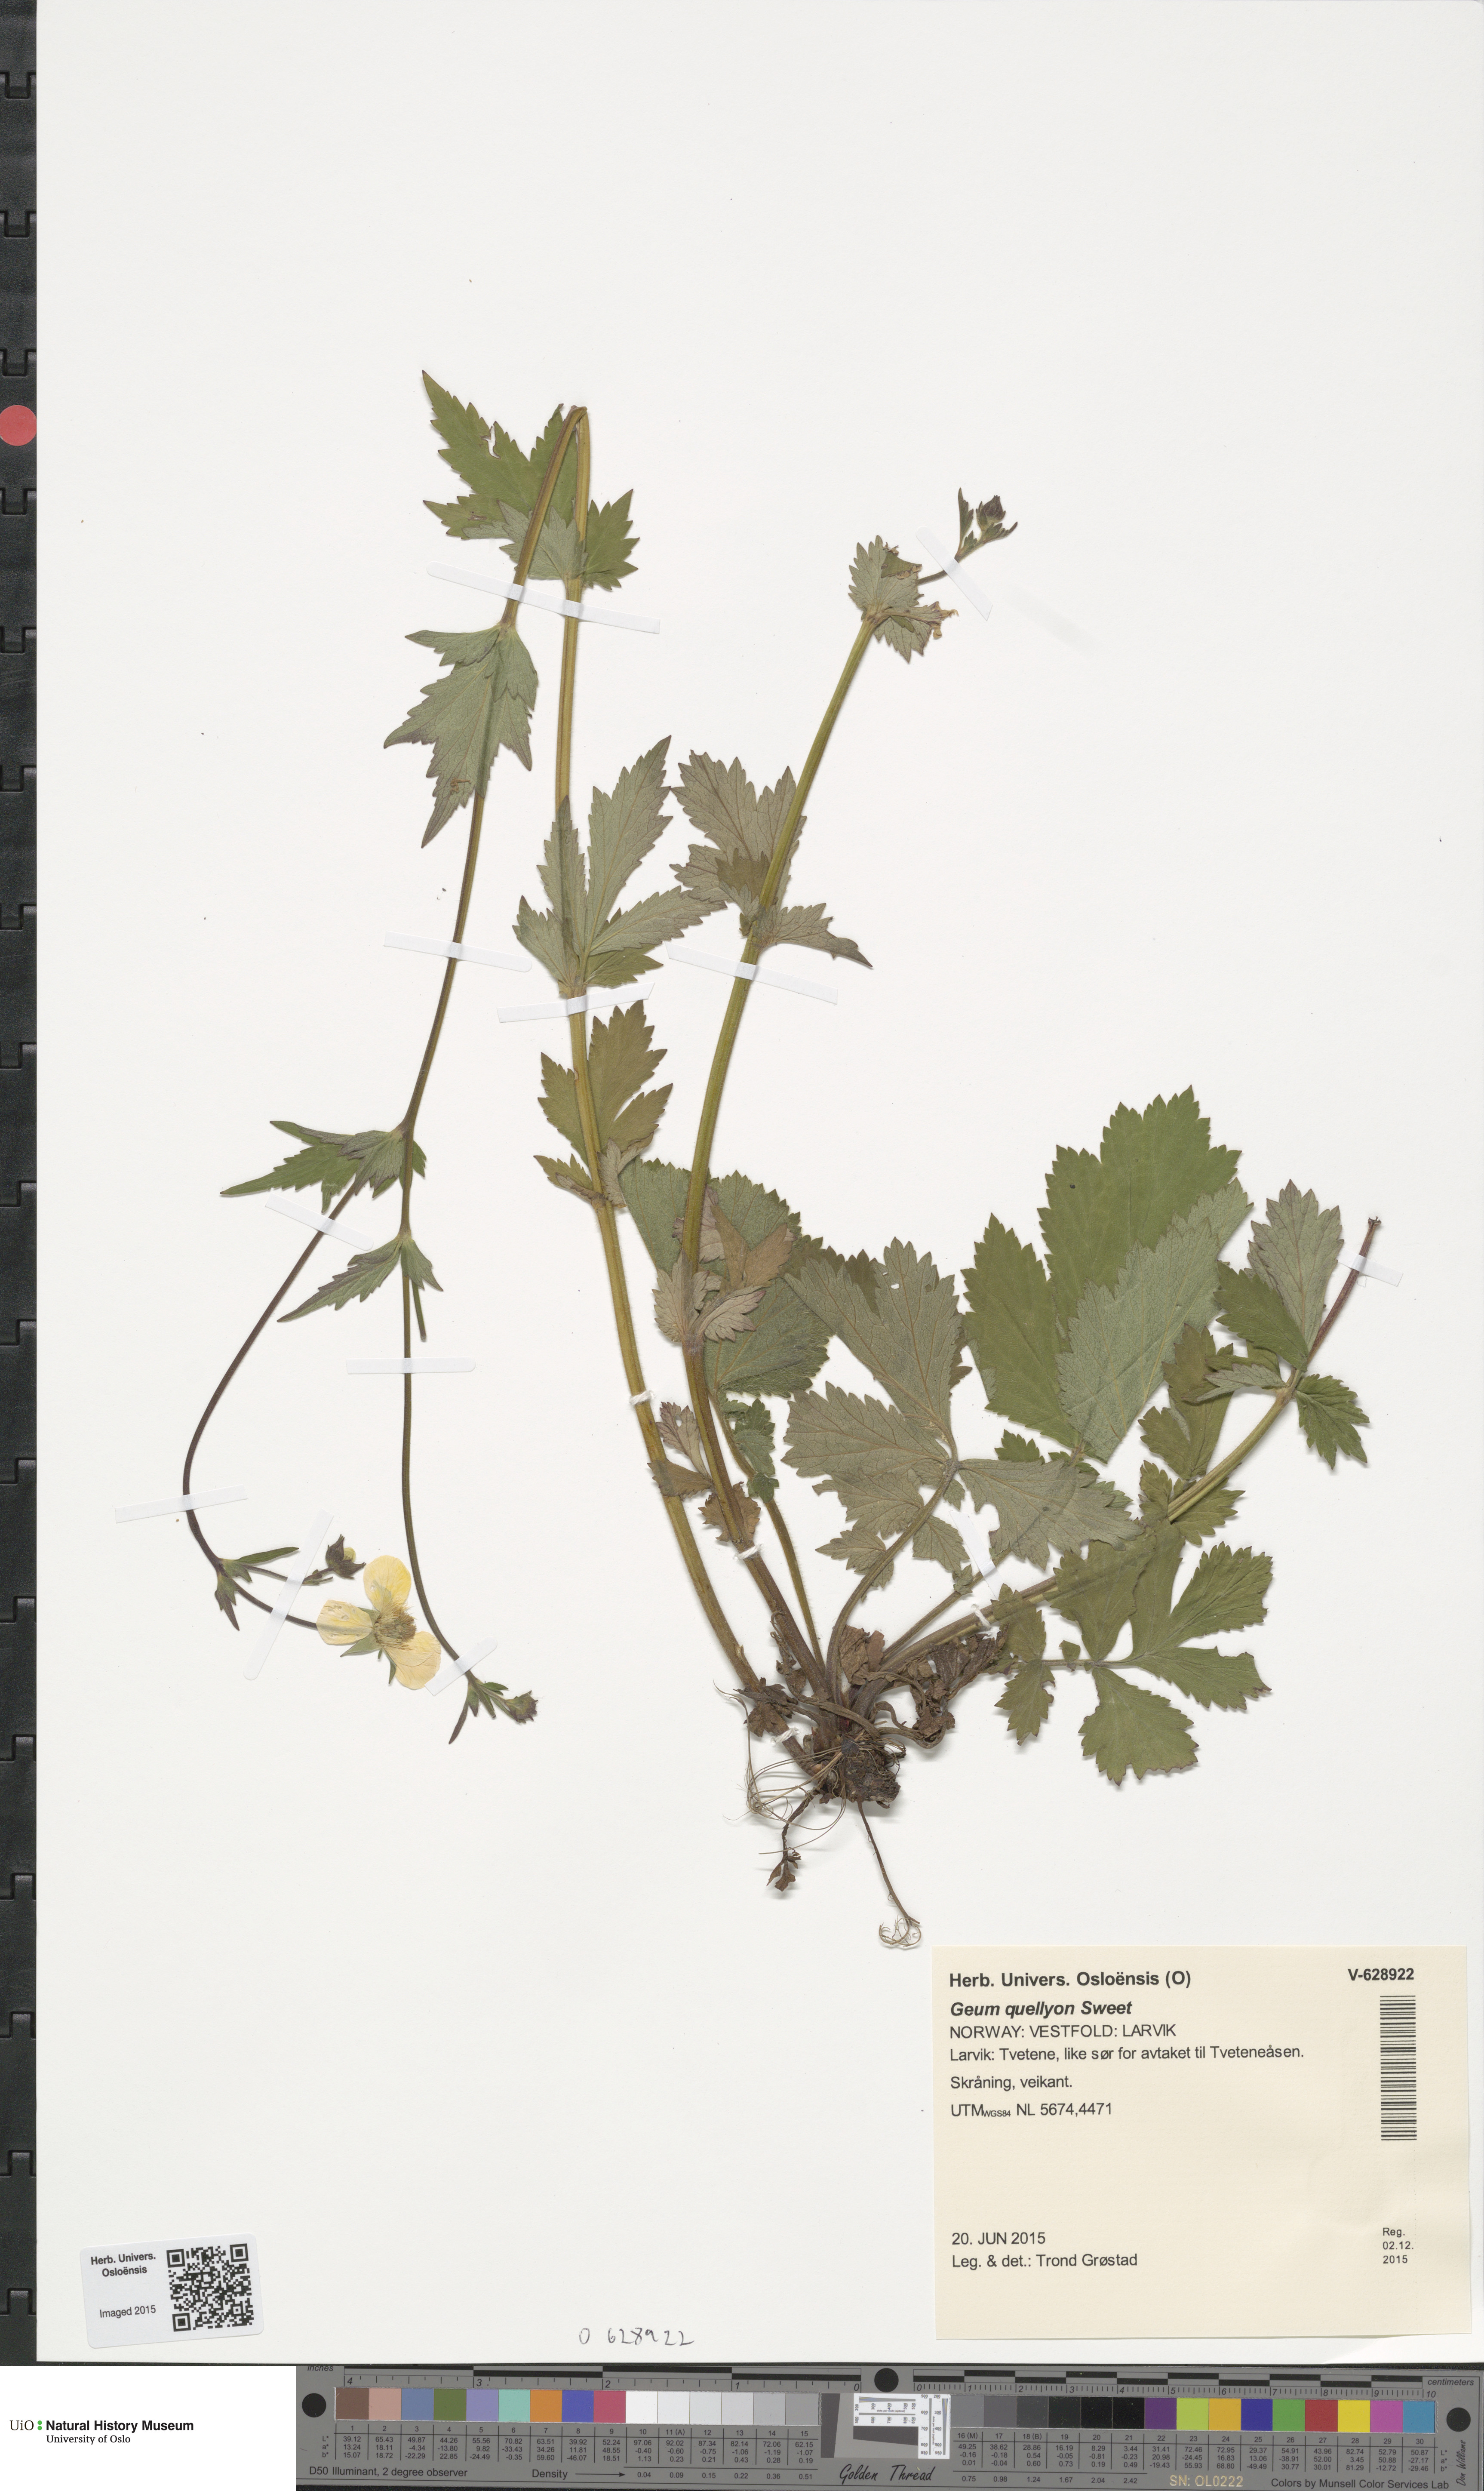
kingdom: Plantae
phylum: Tracheophyta
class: Magnoliopsida
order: Rosales
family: Rosaceae
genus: Geum
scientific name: Geum quellyon
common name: Scarlet avens
